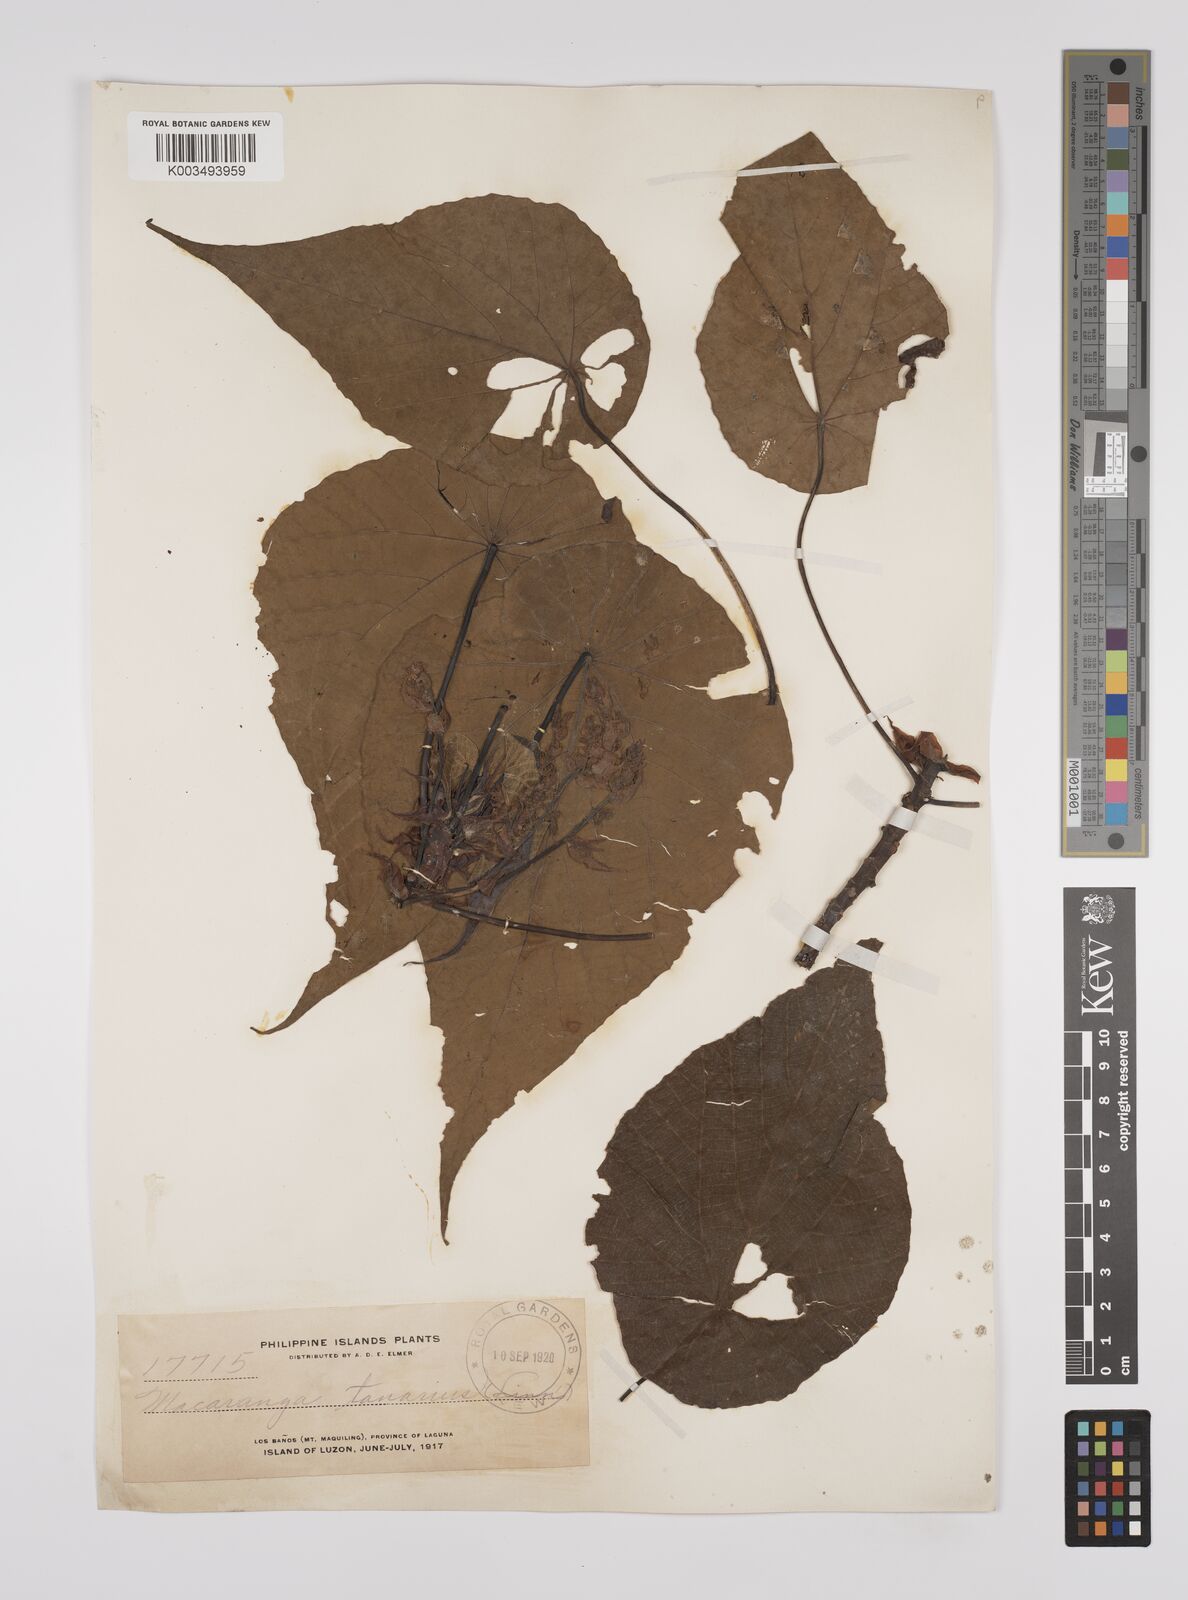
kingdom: Plantae
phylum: Tracheophyta
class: Magnoliopsida
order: Malpighiales
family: Euphorbiaceae
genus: Macaranga
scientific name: Macaranga tanarius
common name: Parasol leaf tree
